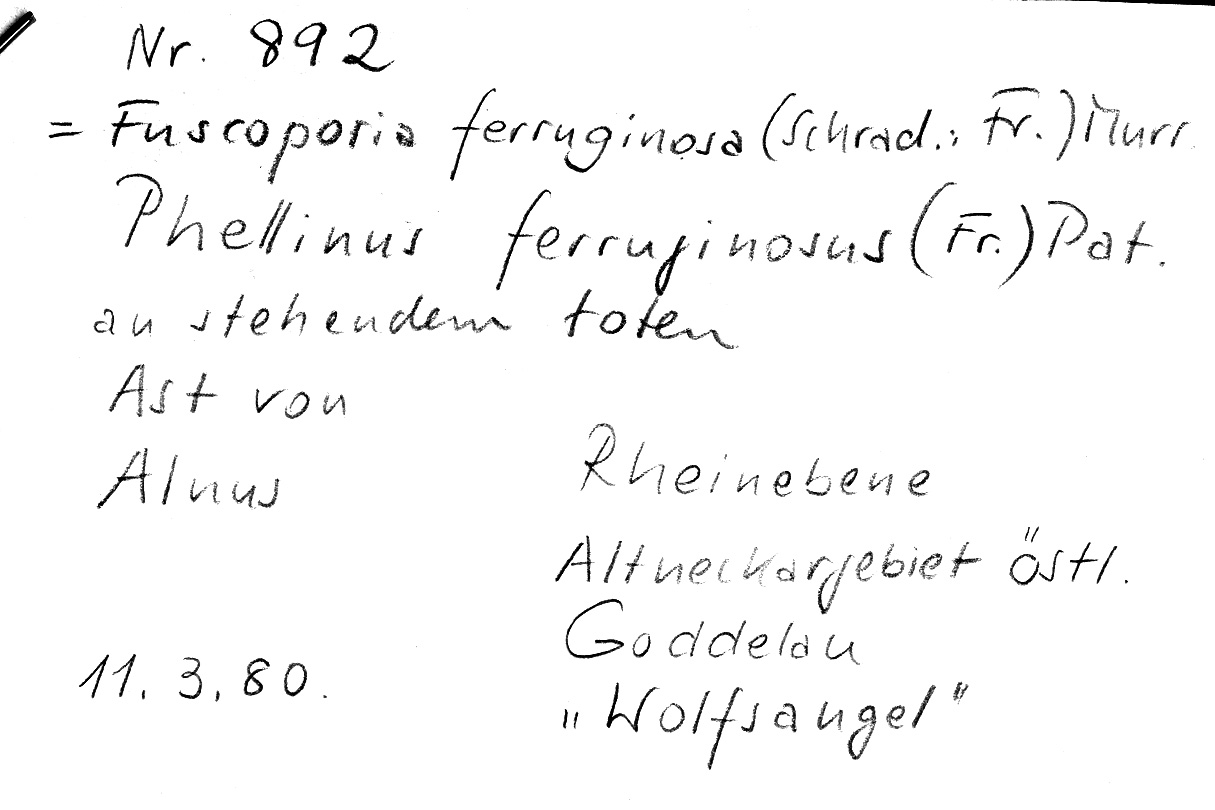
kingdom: Plantae
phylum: Tracheophyta
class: Magnoliopsida
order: Fagales
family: Betulaceae
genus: Alnus
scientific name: Alnus
